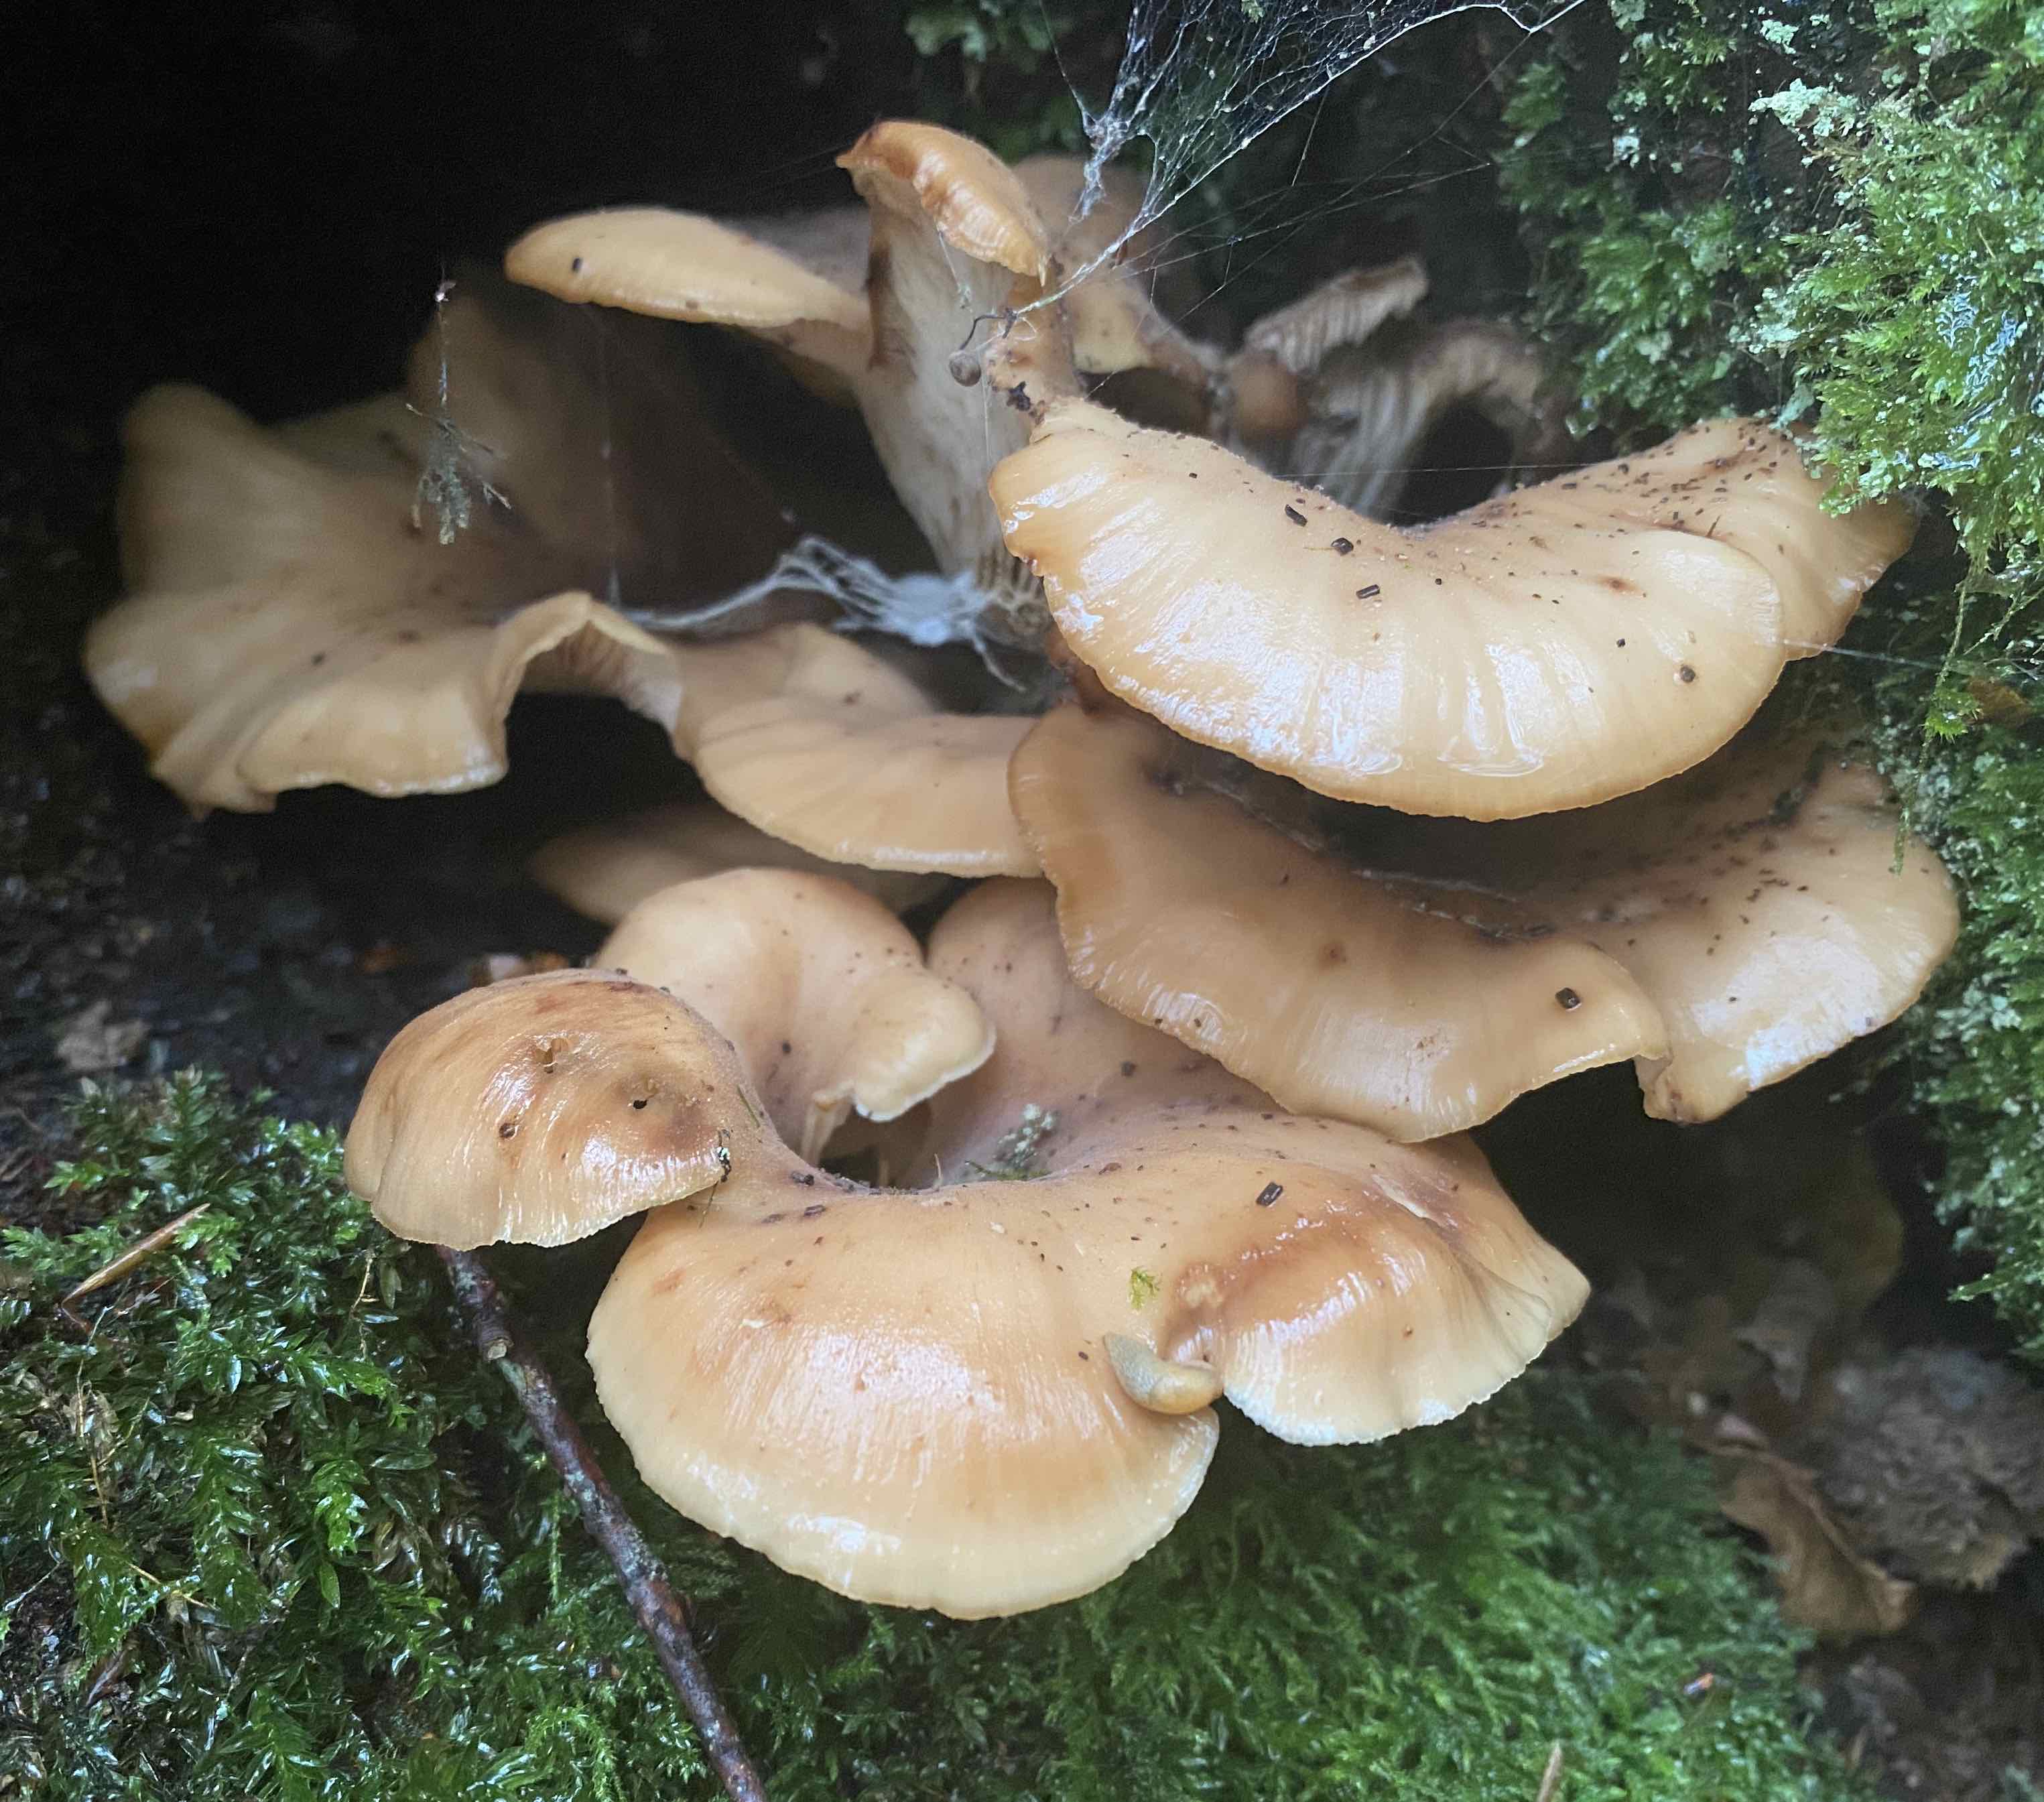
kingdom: Fungi
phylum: Basidiomycota
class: Agaricomycetes
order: Russulales
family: Auriscalpiaceae
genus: Lentinellus
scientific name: Lentinellus cochleatus
